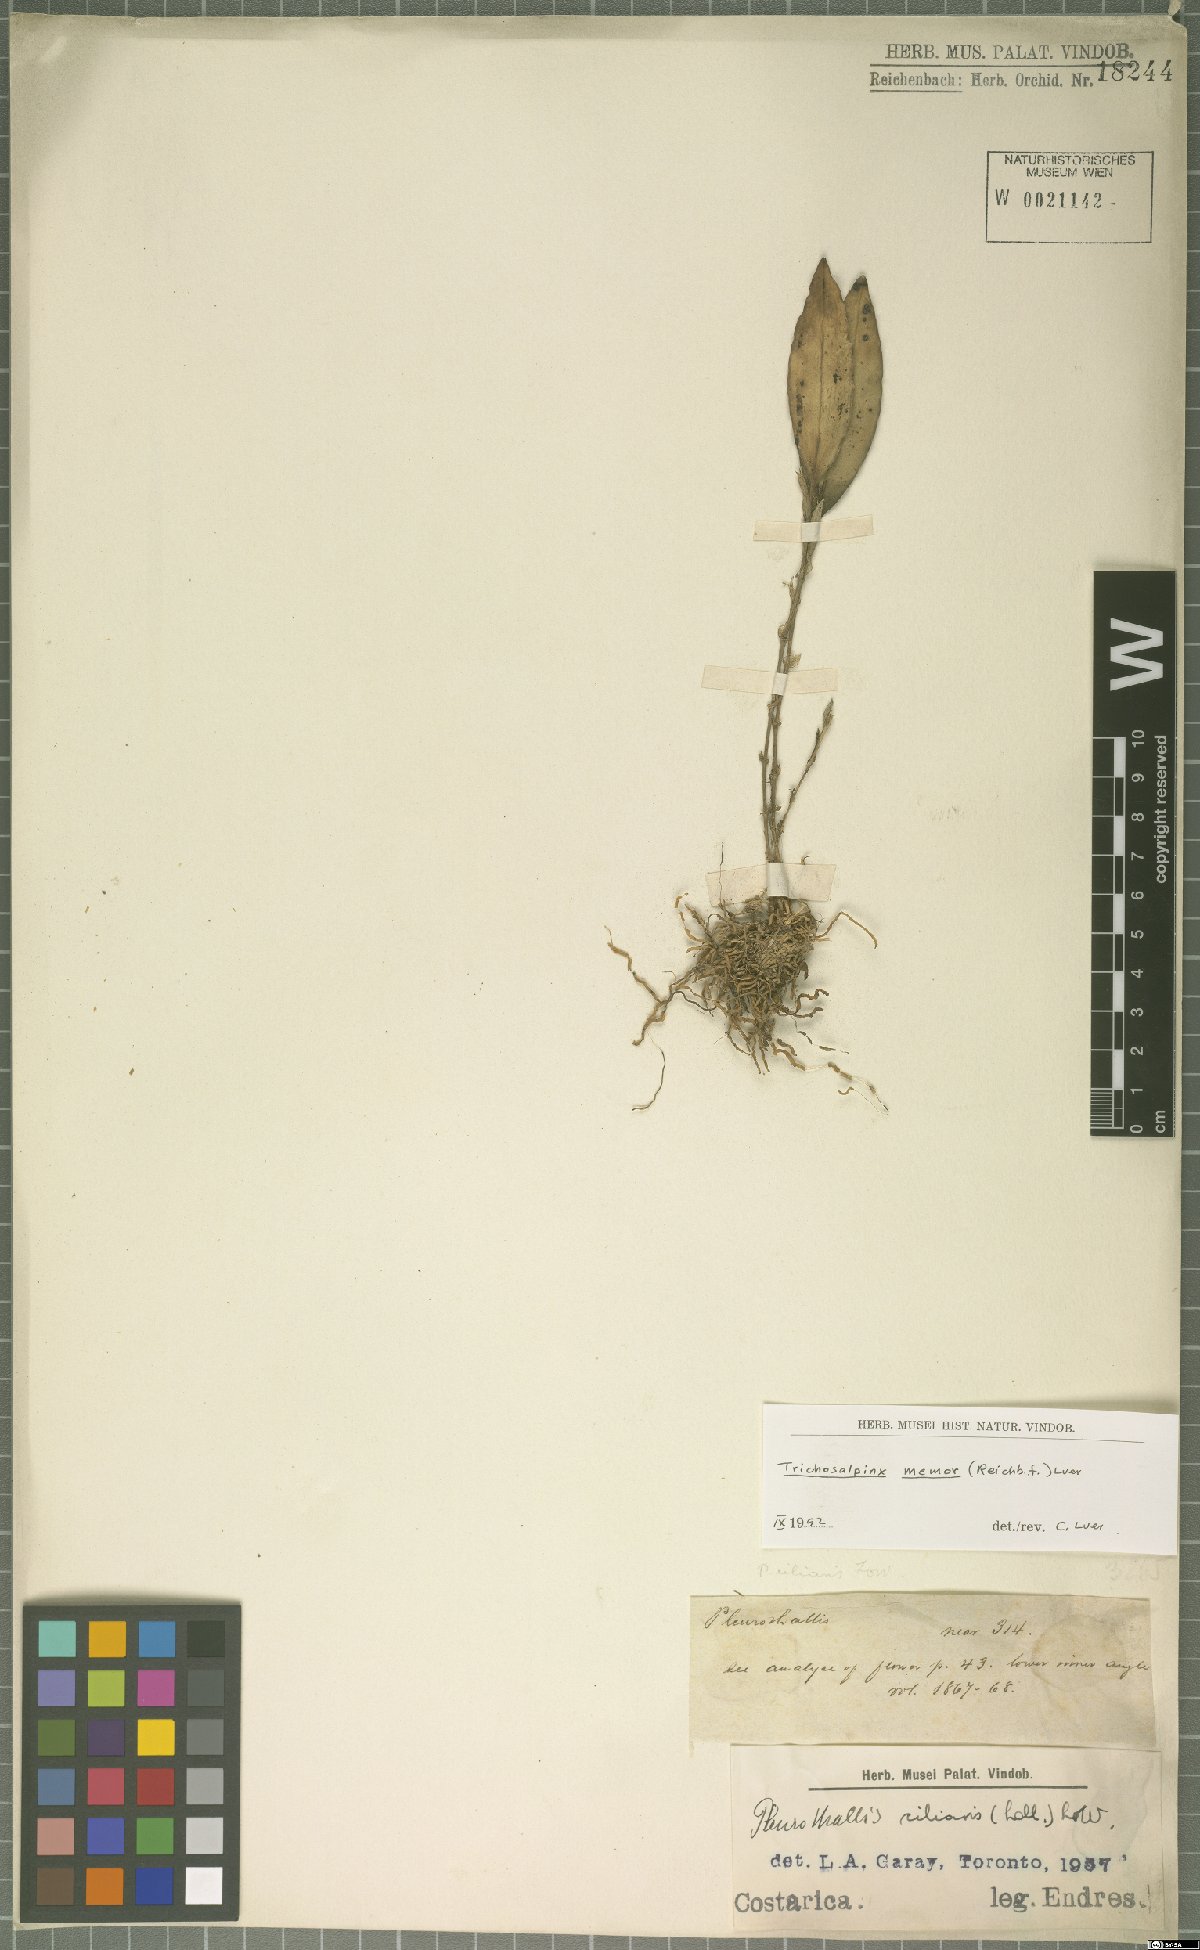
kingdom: Plantae
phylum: Tracheophyta
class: Liliopsida
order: Asparagales
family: Orchidaceae
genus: Trichosalpinx
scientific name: Trichosalpinx memor
